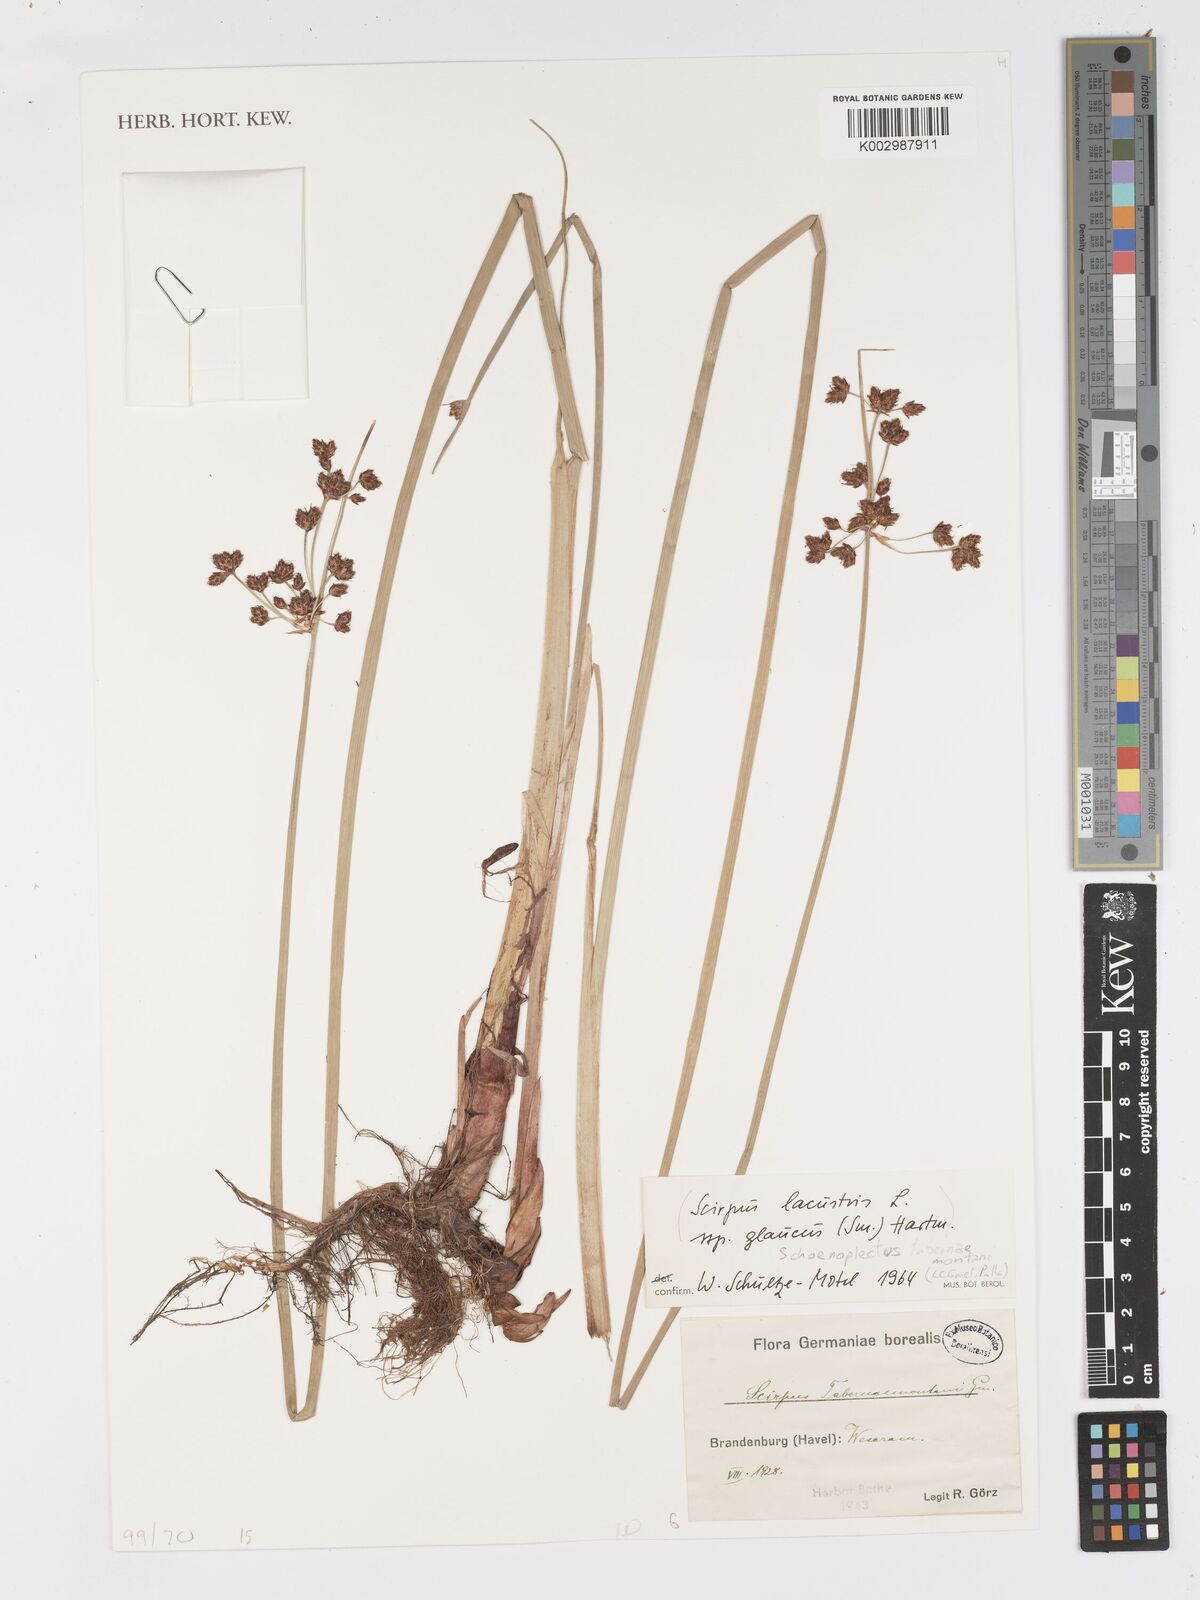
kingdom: Plantae
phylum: Tracheophyta
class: Liliopsida
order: Poales
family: Cyperaceae
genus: Schoenoplectus
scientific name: Schoenoplectus tabernaemontani
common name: Grey club-rush
